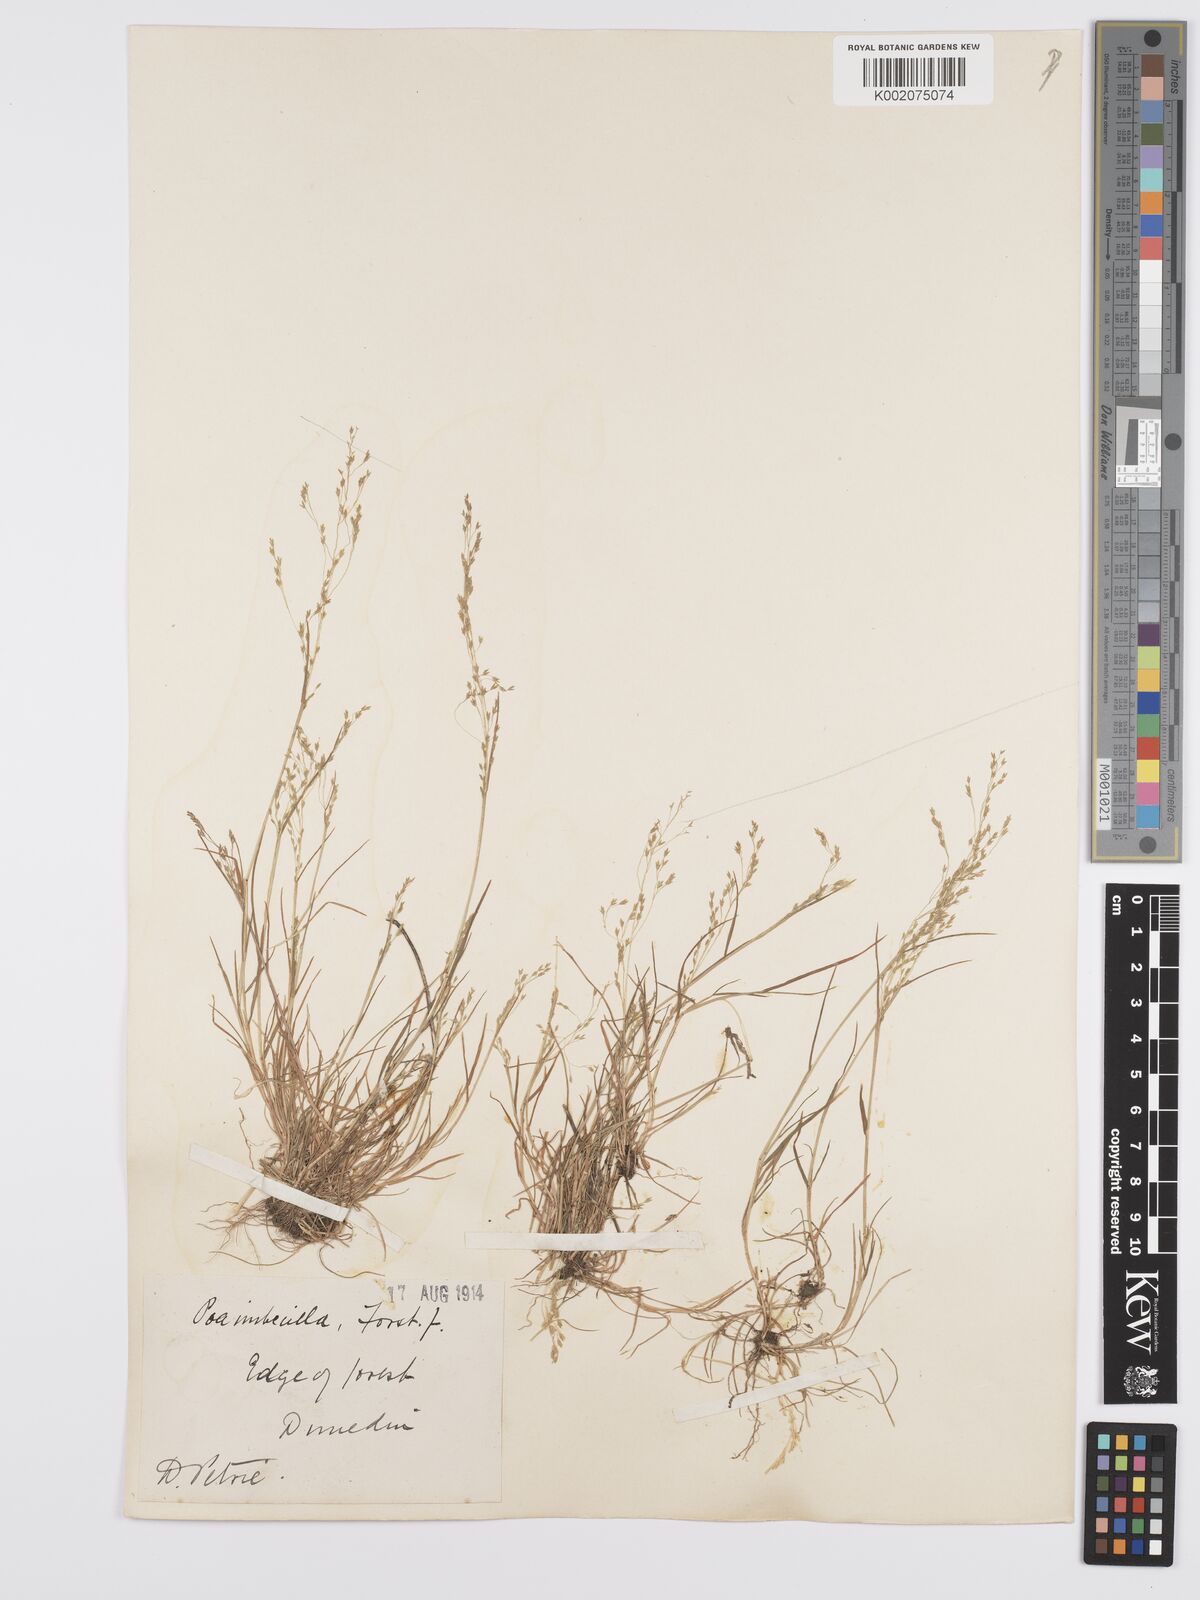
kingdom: Plantae
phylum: Tracheophyta
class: Liliopsida
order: Poales
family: Poaceae
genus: Poa
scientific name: Poa breviglumis
